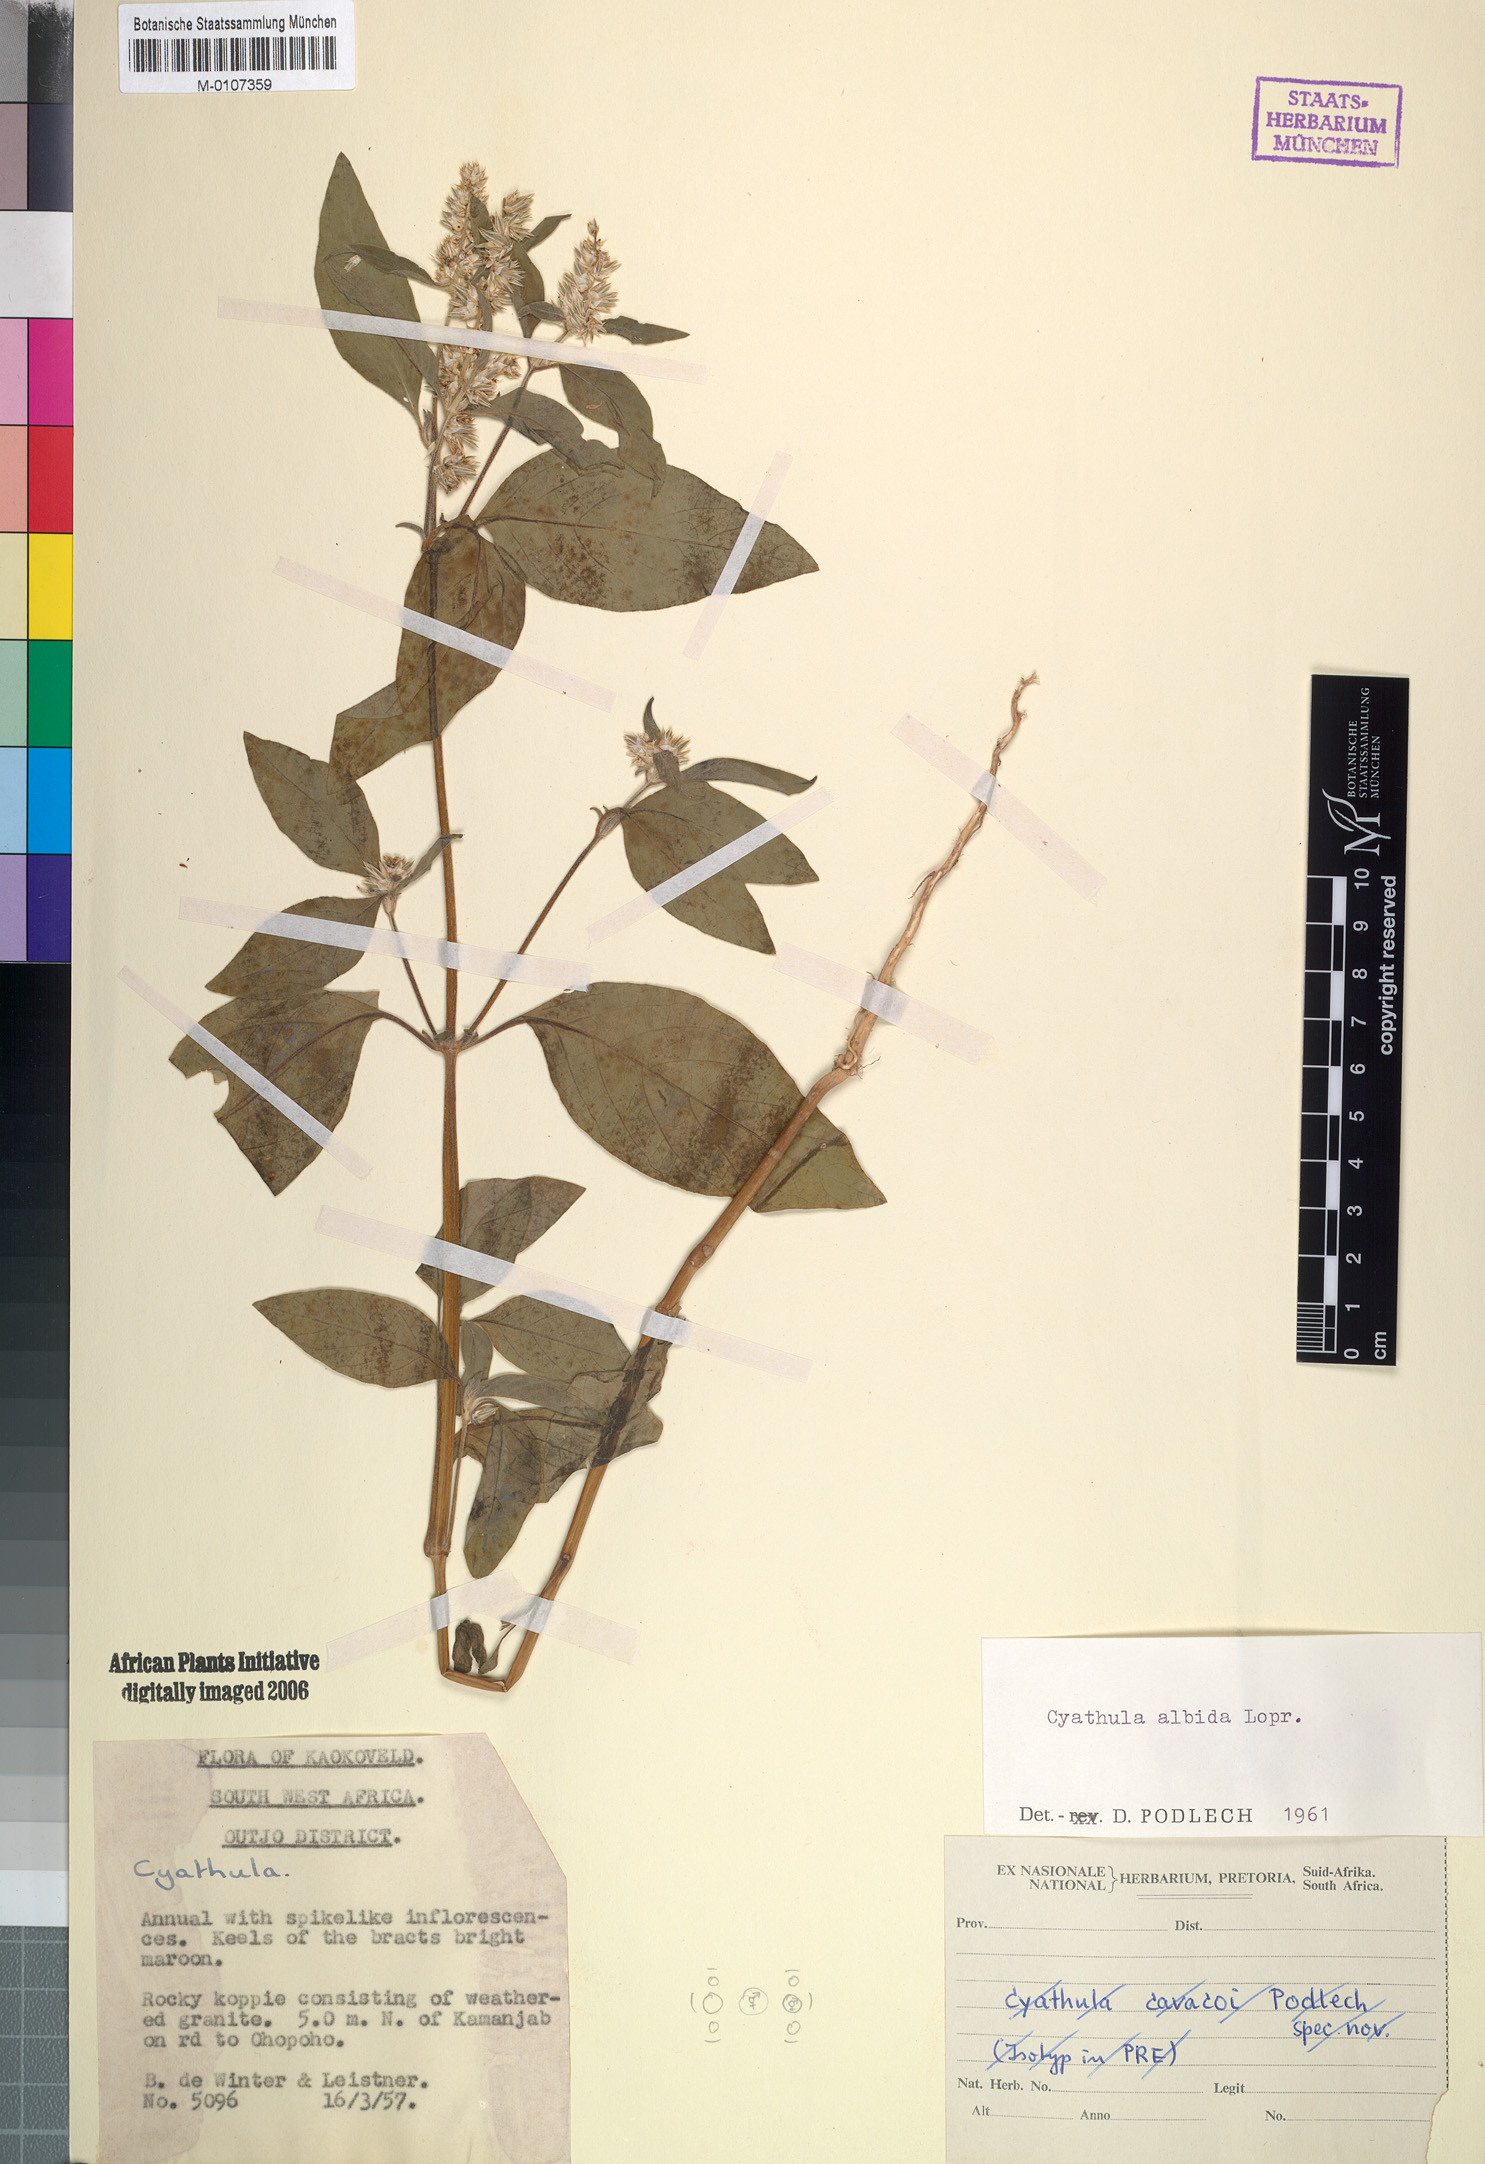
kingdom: Plantae
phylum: Tracheophyta
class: Magnoliopsida
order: Caryophyllales
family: Amaranthaceae
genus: Cyathula
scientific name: Cyathula cylindrica
